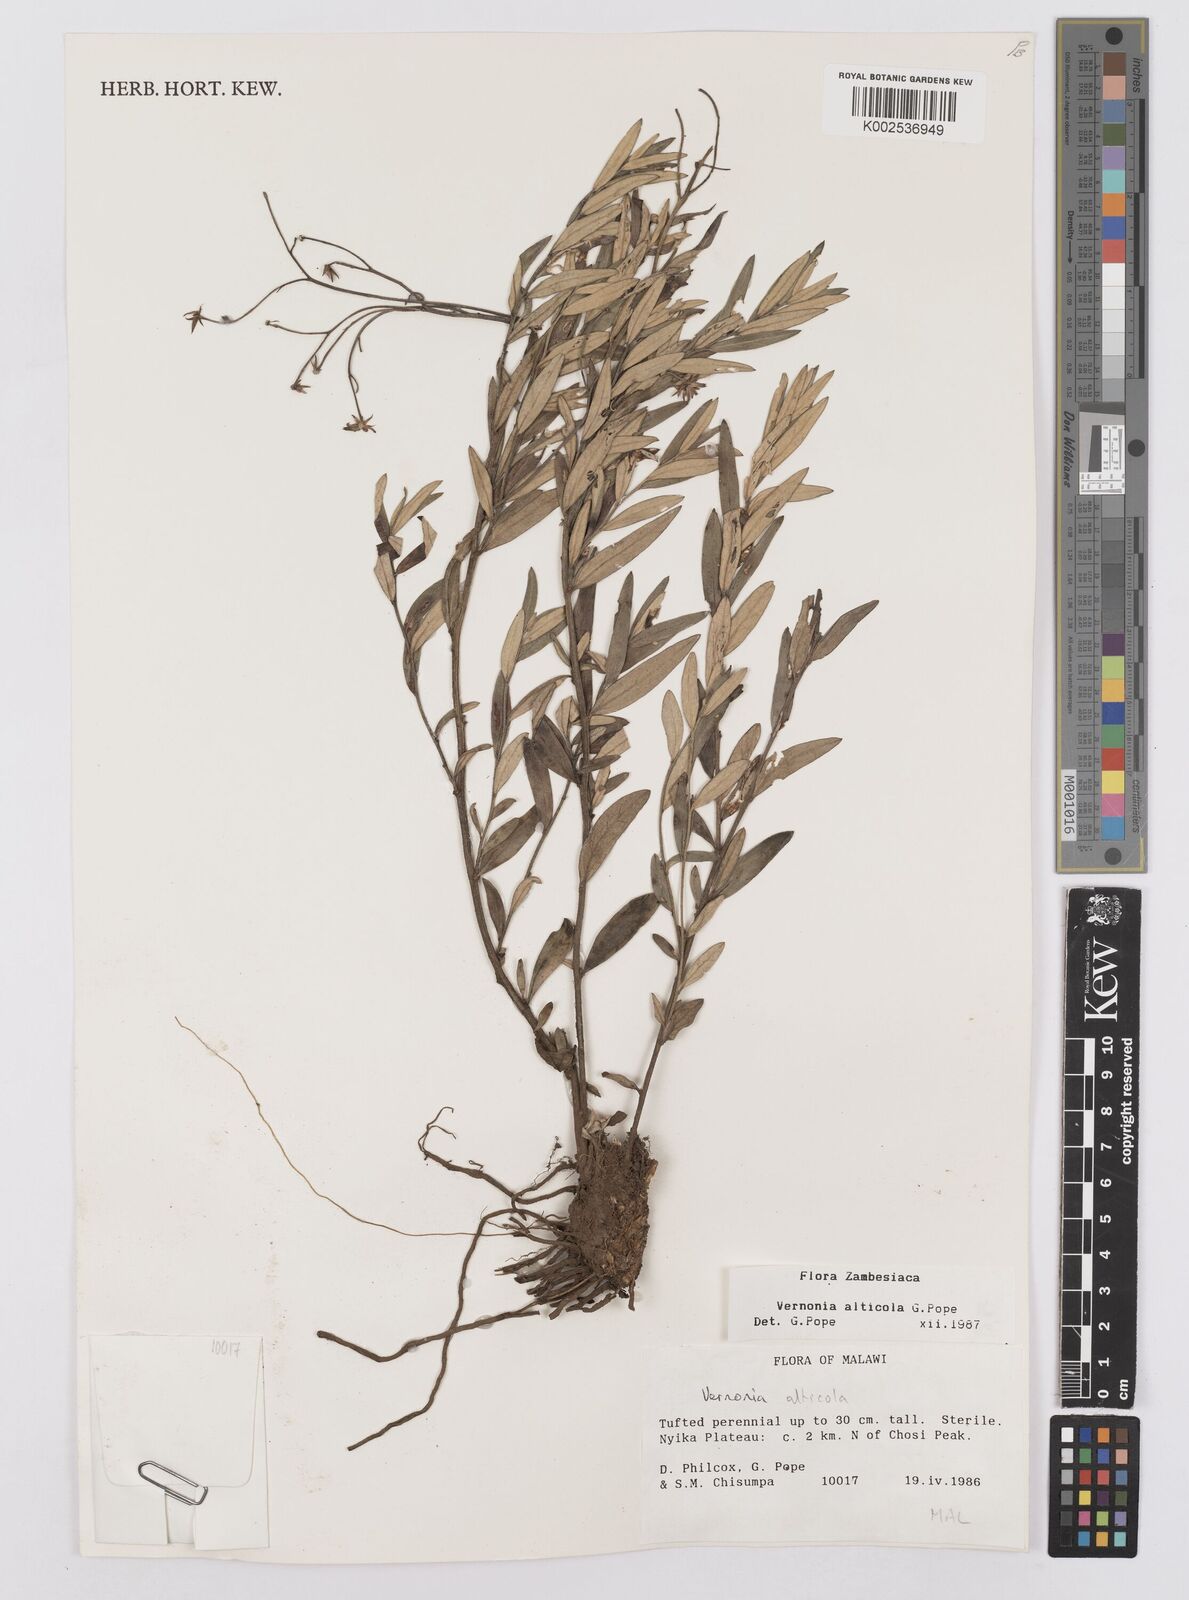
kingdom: Plantae
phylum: Tracheophyta
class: Magnoliopsida
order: Asterales
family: Asteraceae
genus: Vernonia
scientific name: Vernonia alticola
